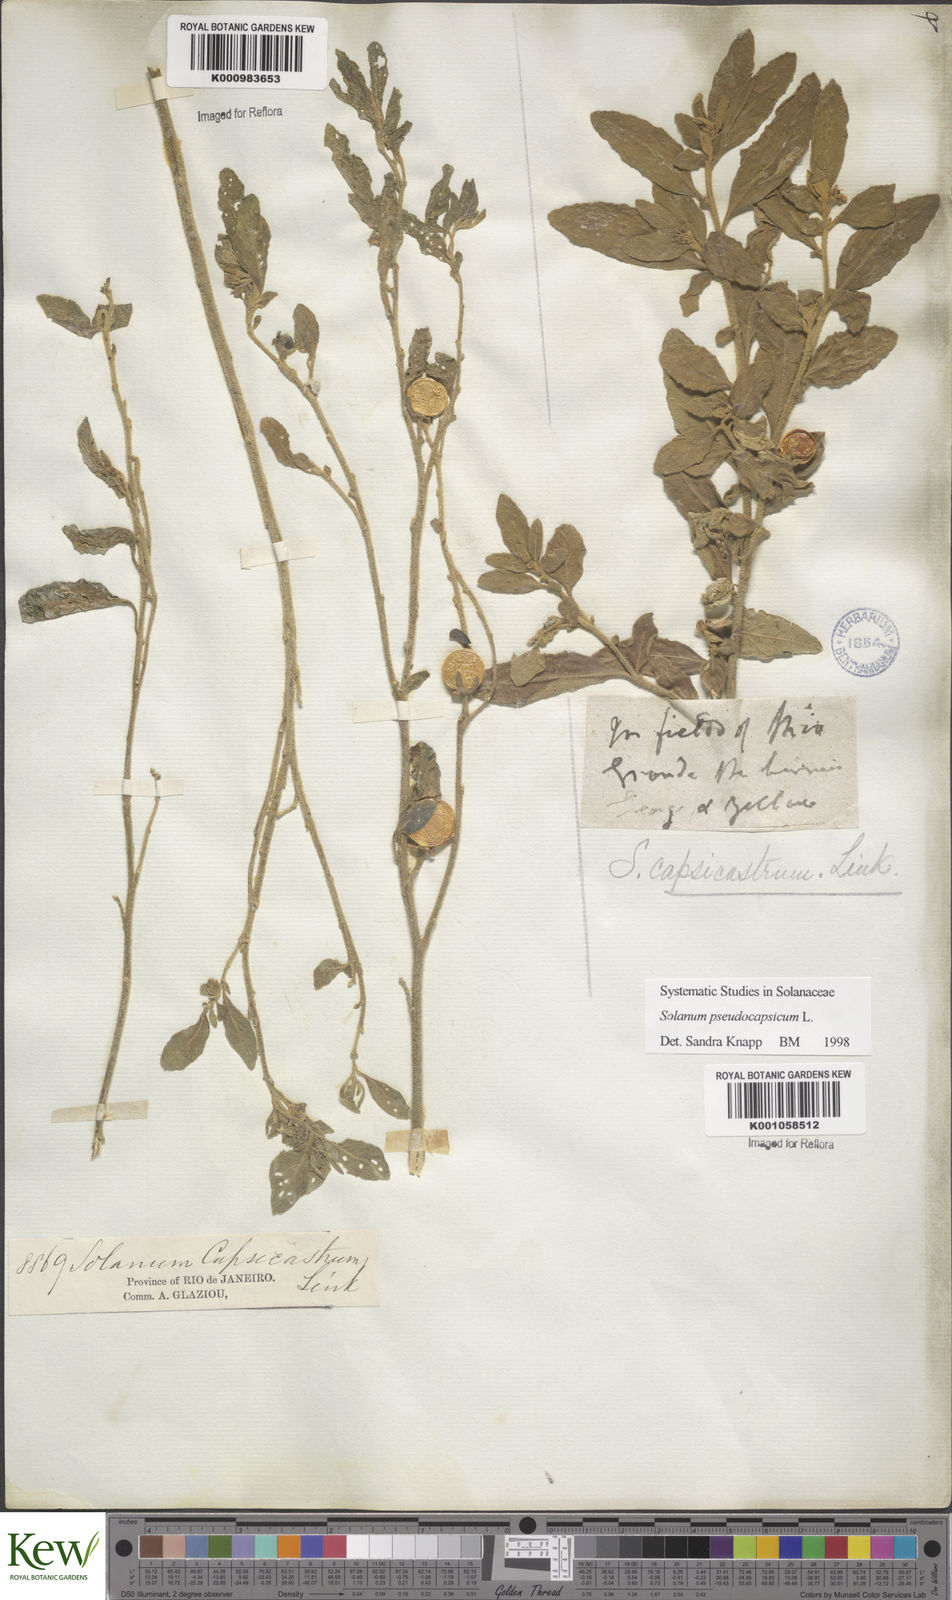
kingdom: Plantae
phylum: Tracheophyta
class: Magnoliopsida
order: Solanales
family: Solanaceae
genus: Solanum
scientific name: Solanum pseudocapsicum
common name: Jerusalem cherry
